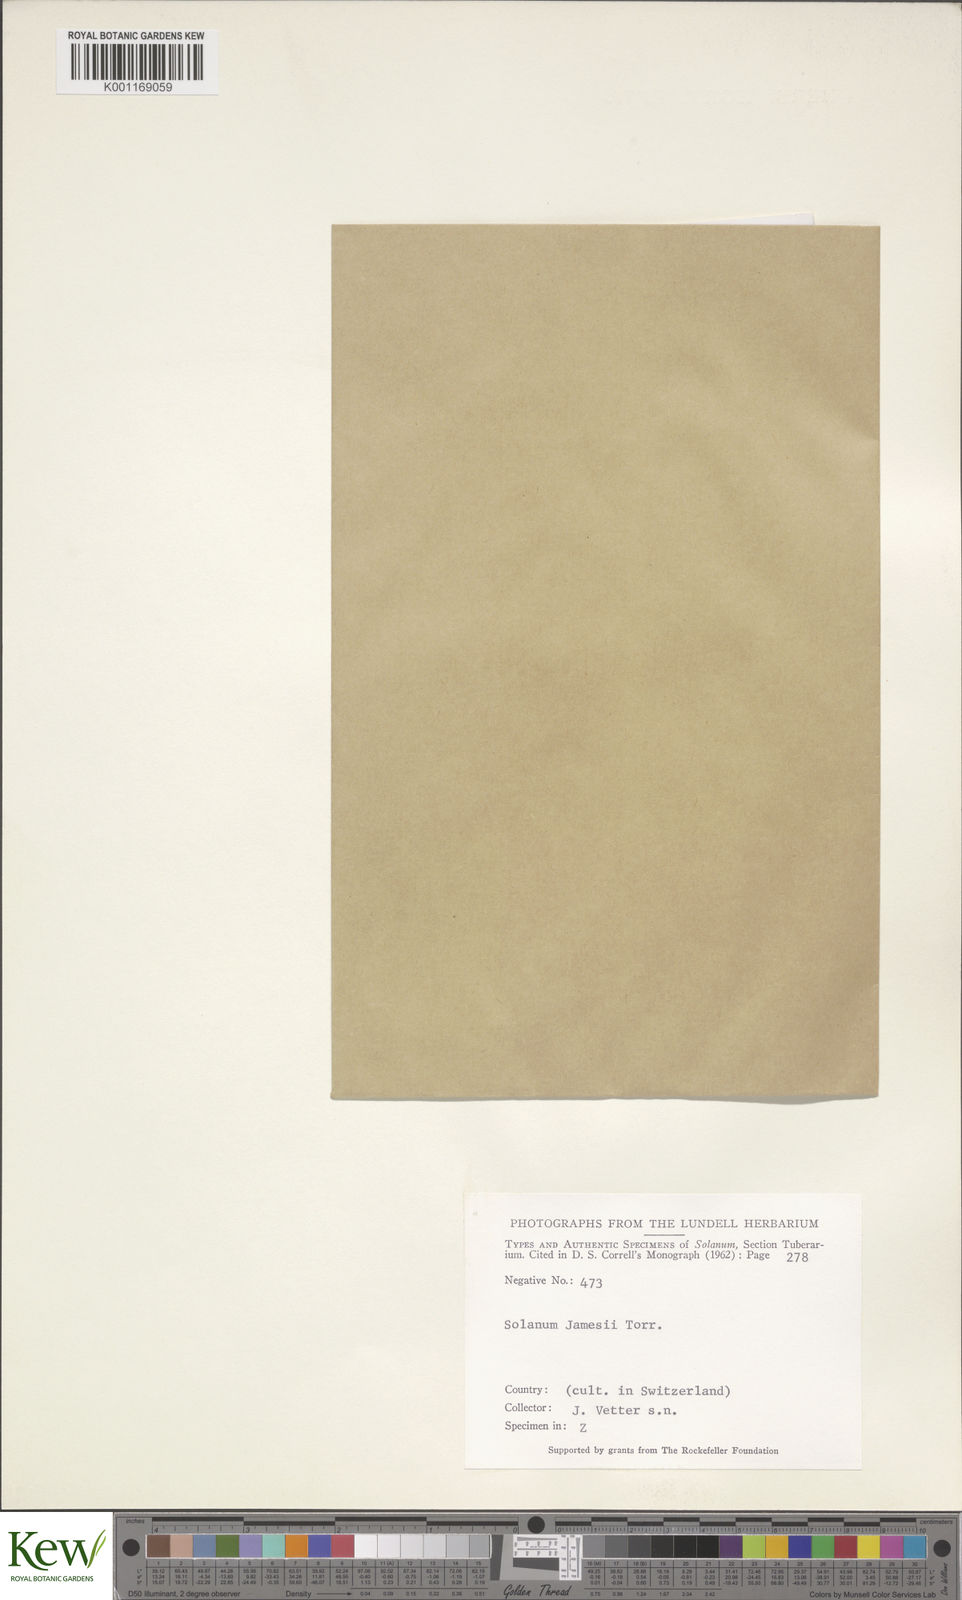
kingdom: Plantae
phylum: Tracheophyta
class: Magnoliopsida
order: Solanales
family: Solanaceae
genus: Solanum
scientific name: Solanum jamesii
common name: Wild potato
